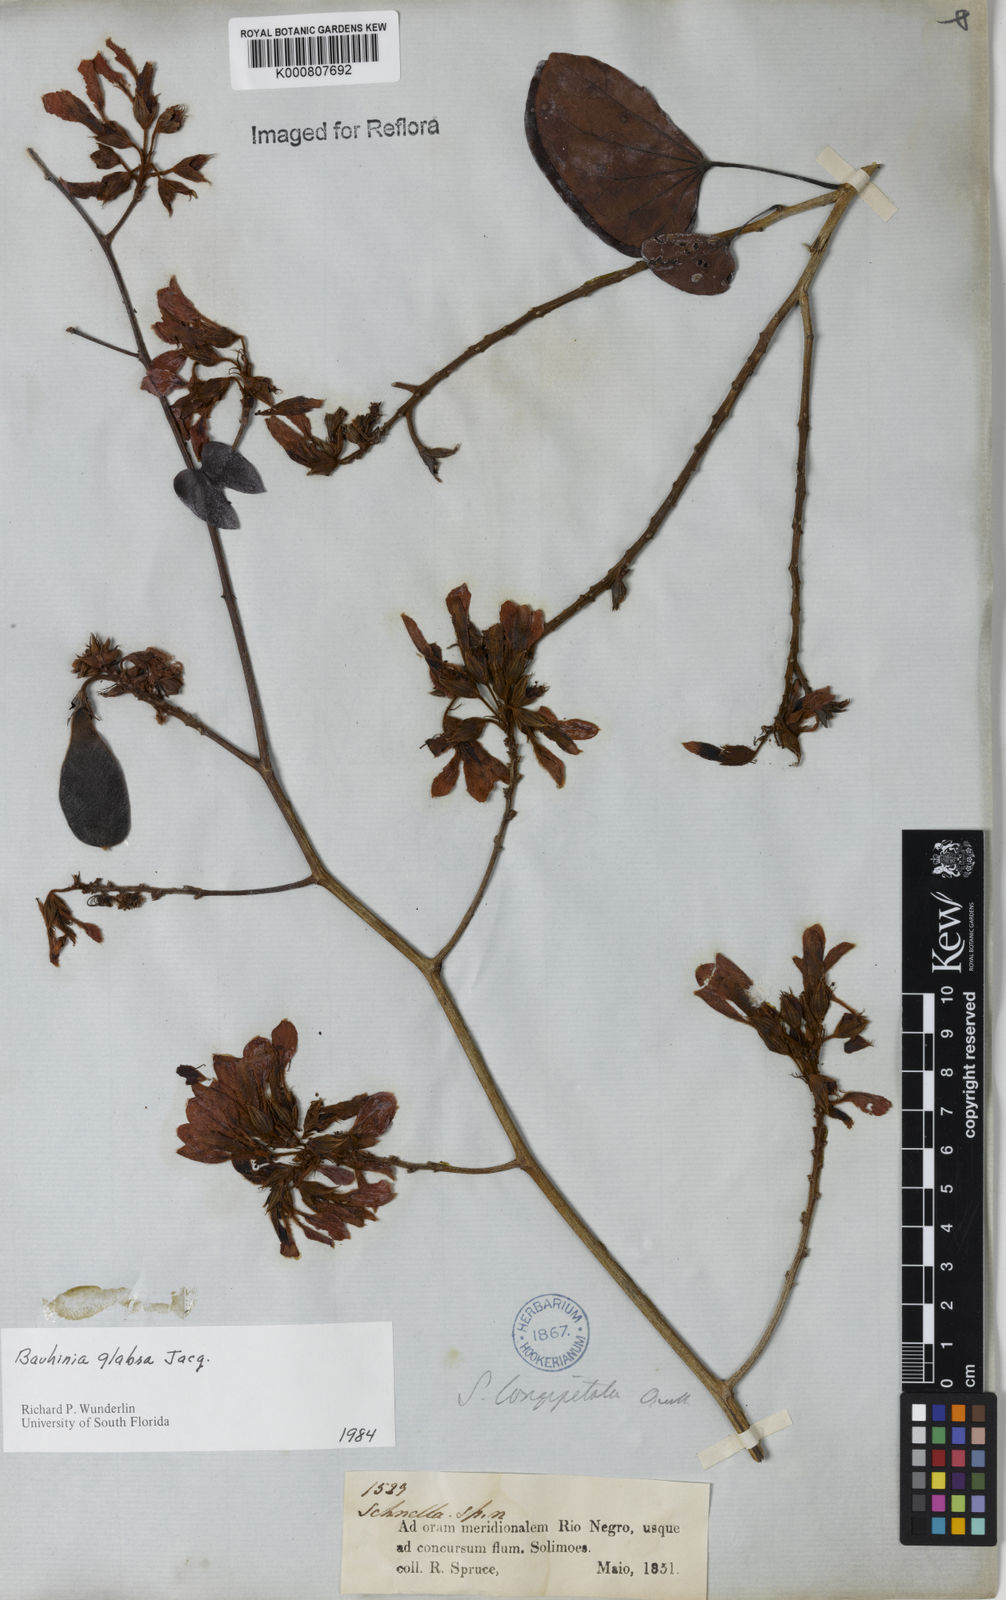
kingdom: Plantae
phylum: Tracheophyta
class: Magnoliopsida
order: Fabales
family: Fabaceae
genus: Schnella
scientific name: Schnella glabra
